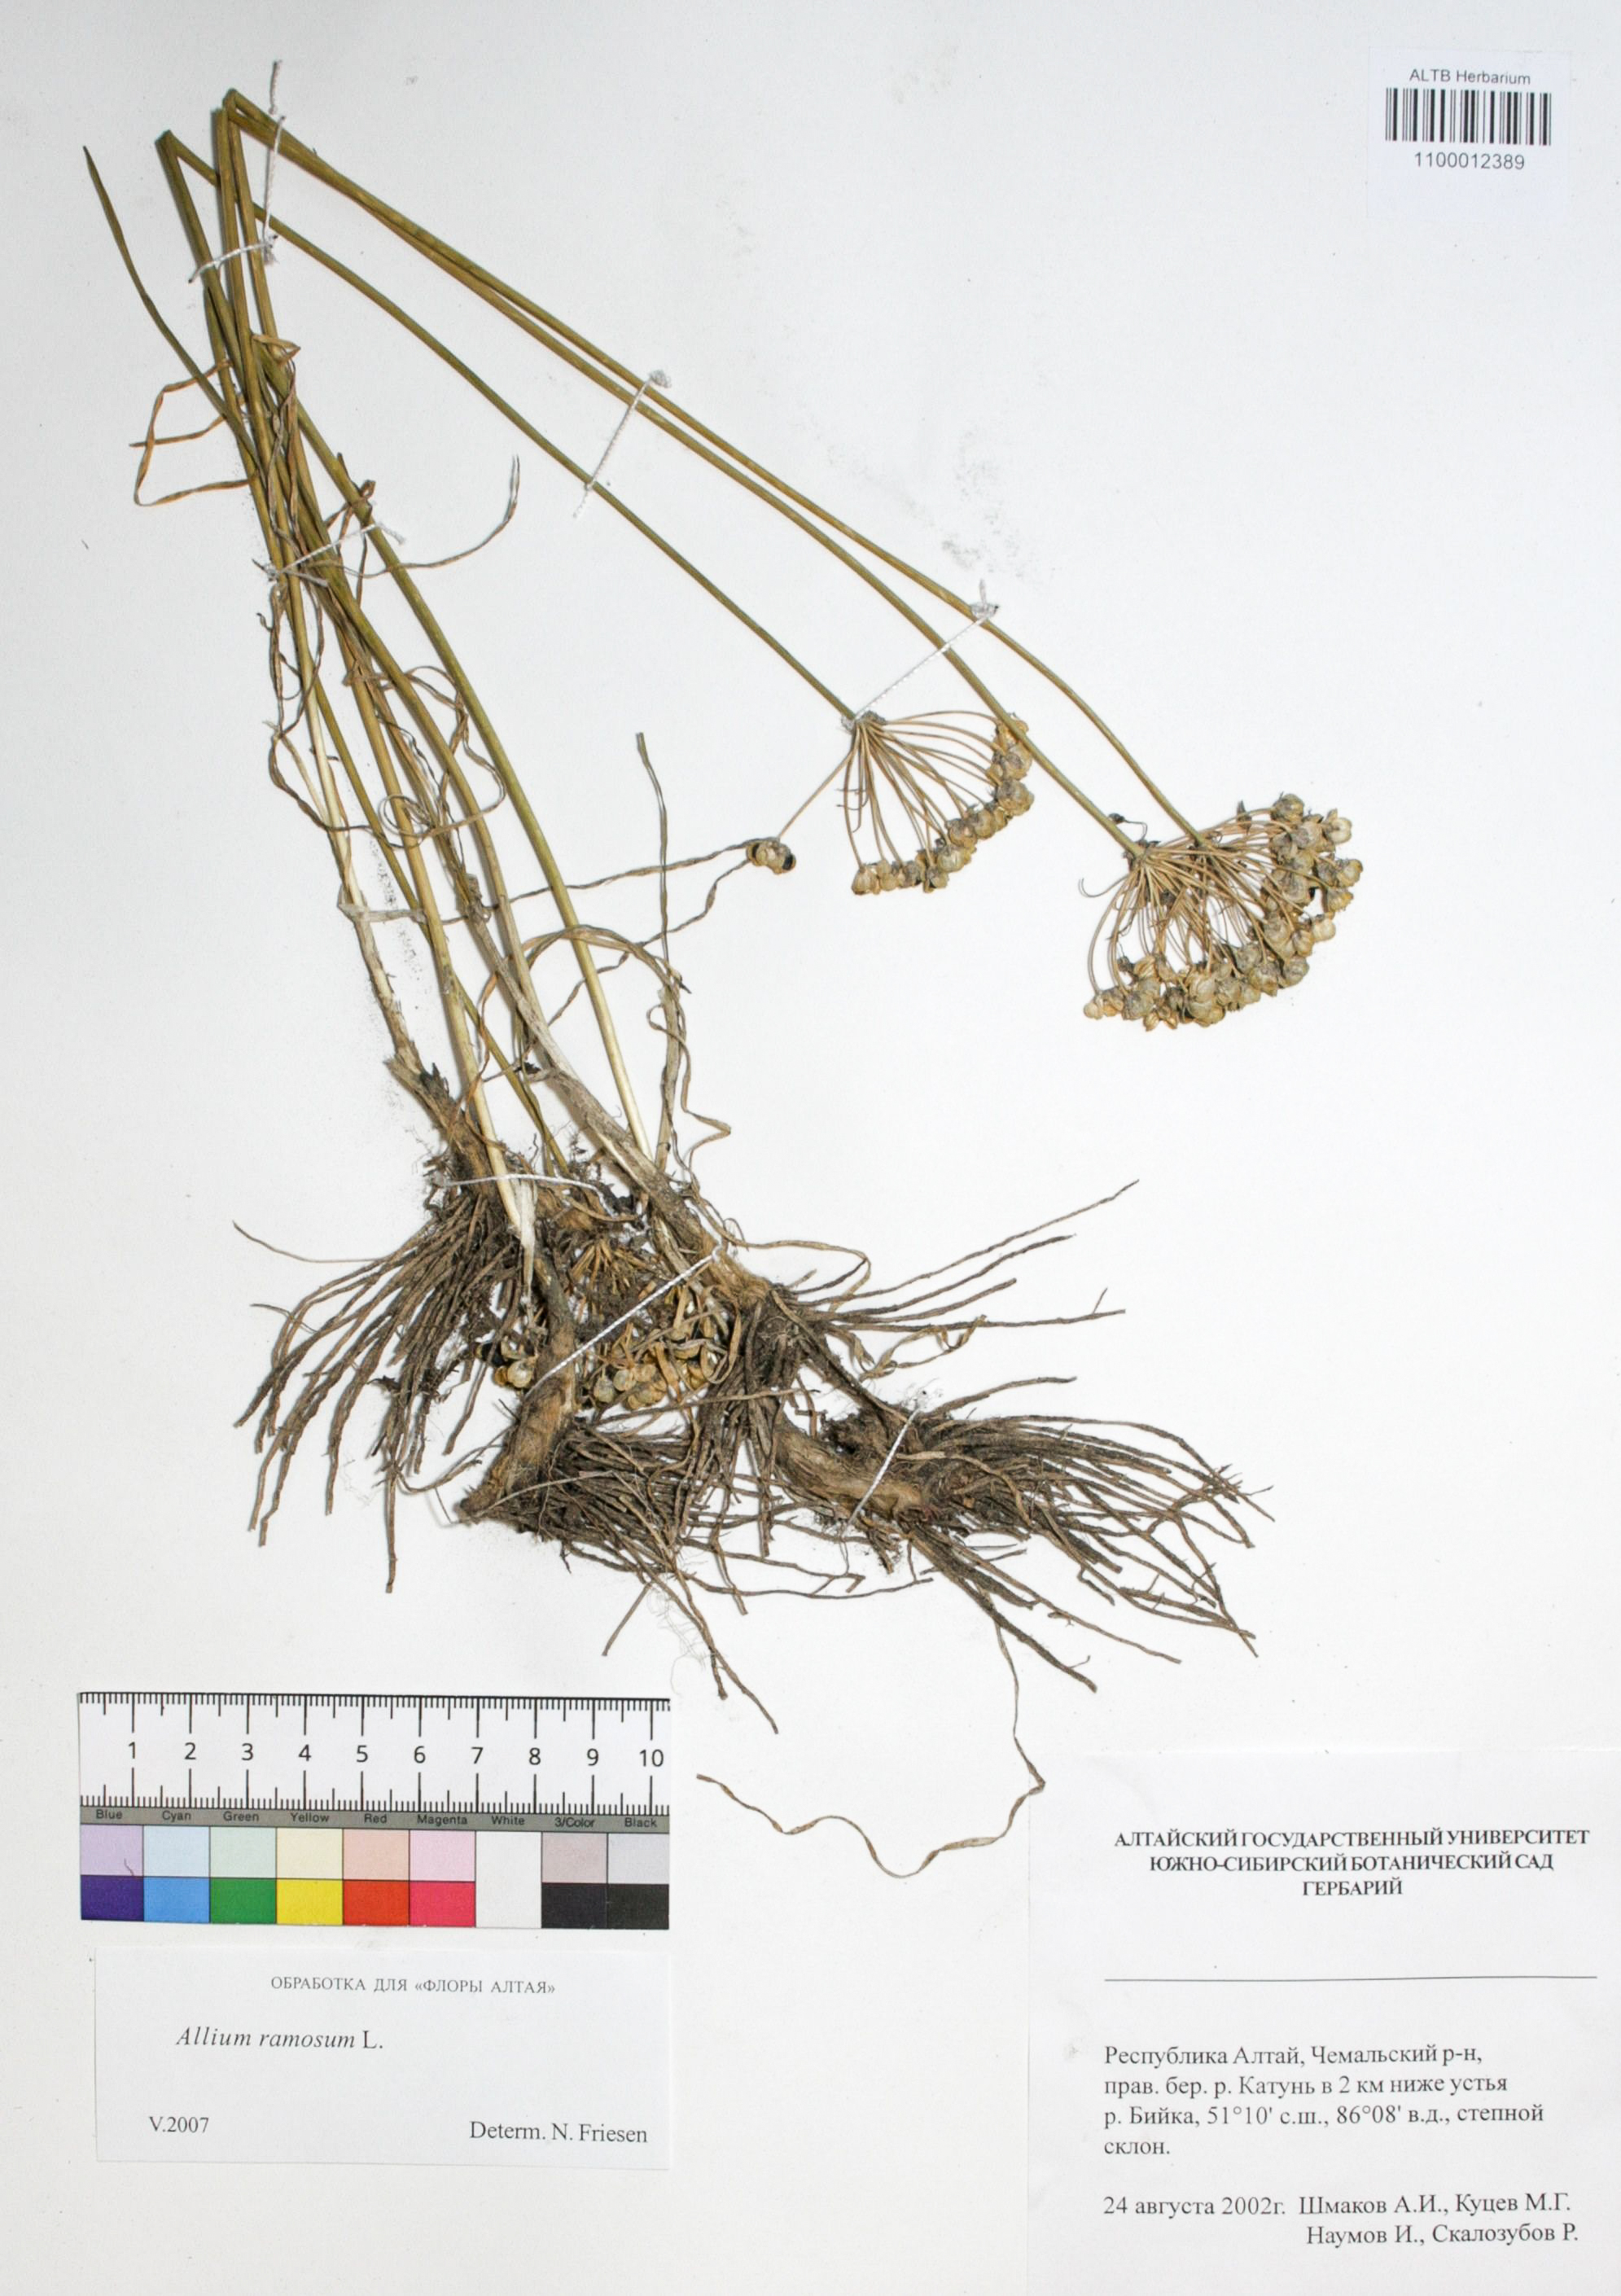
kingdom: Plantae
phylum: Tracheophyta
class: Liliopsida
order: Asparagales
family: Amaryllidaceae
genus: Allium
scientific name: Allium ramosum
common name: Fragrant garlic
